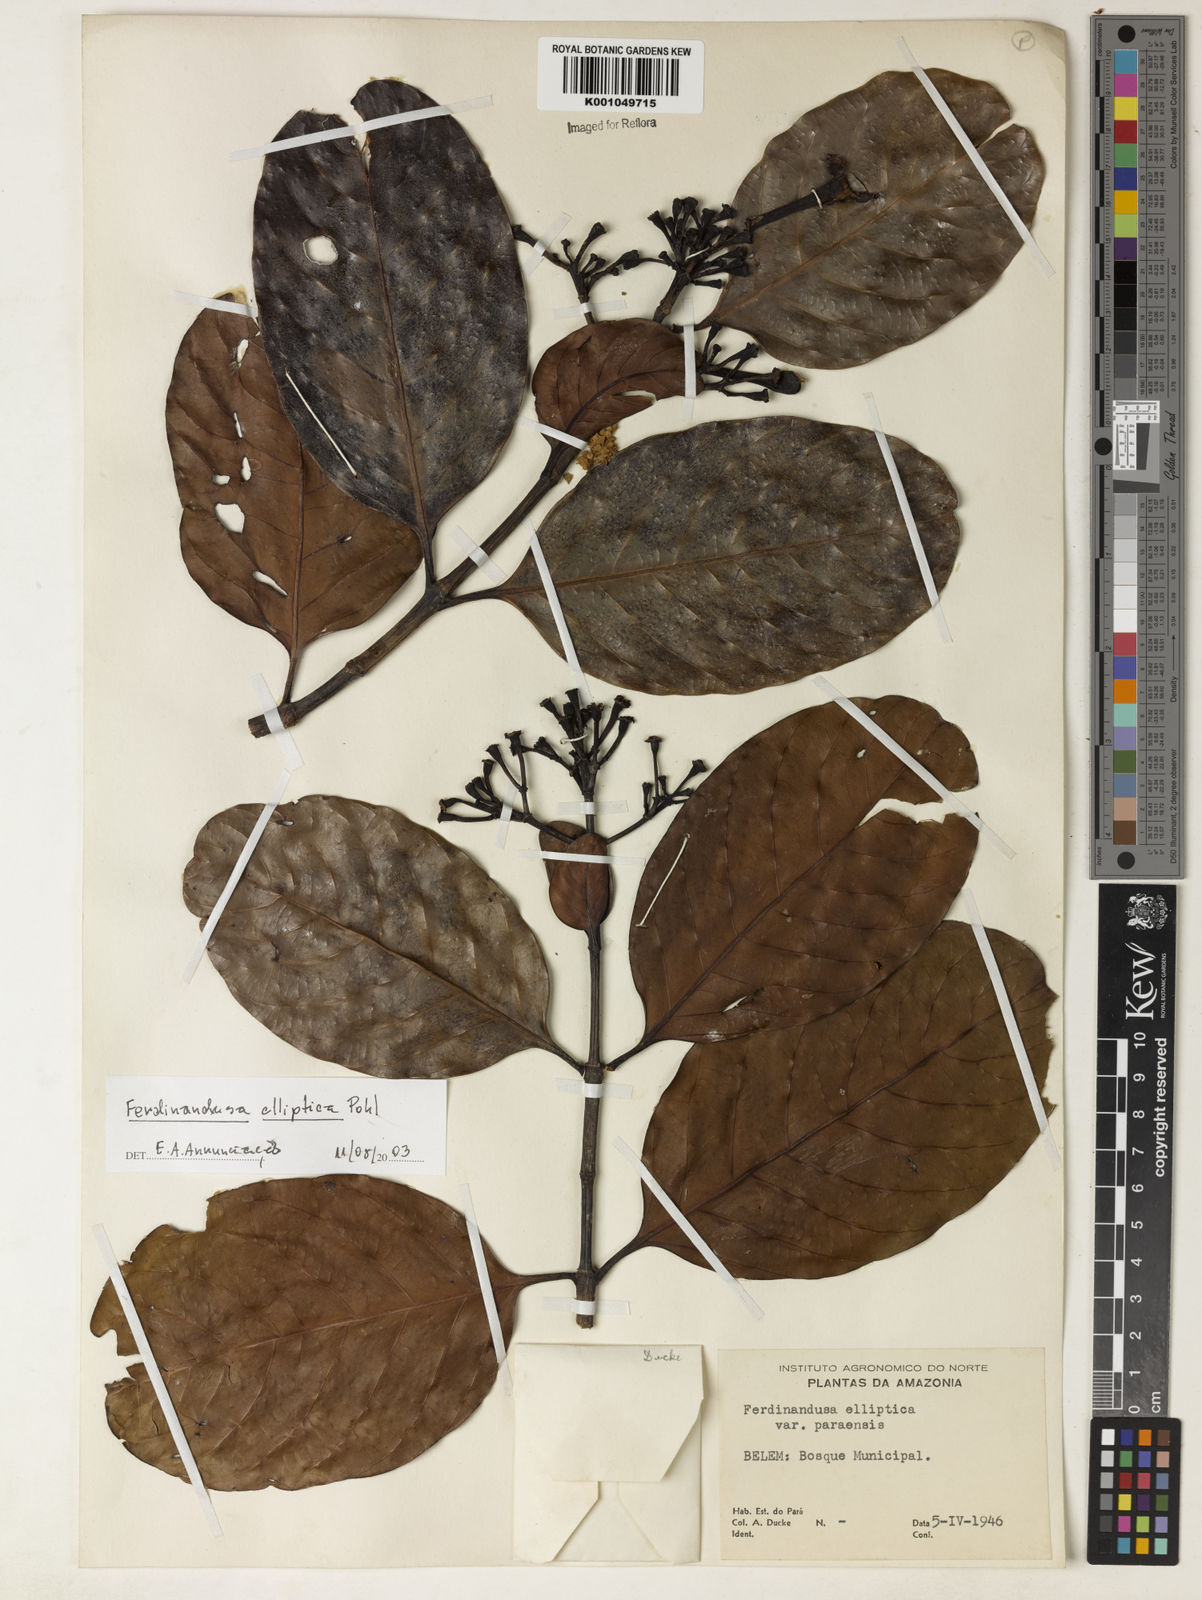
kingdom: Plantae
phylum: Tracheophyta
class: Magnoliopsida
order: Gentianales
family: Rubiaceae
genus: Ferdinandusa
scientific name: Ferdinandusa elliptica
